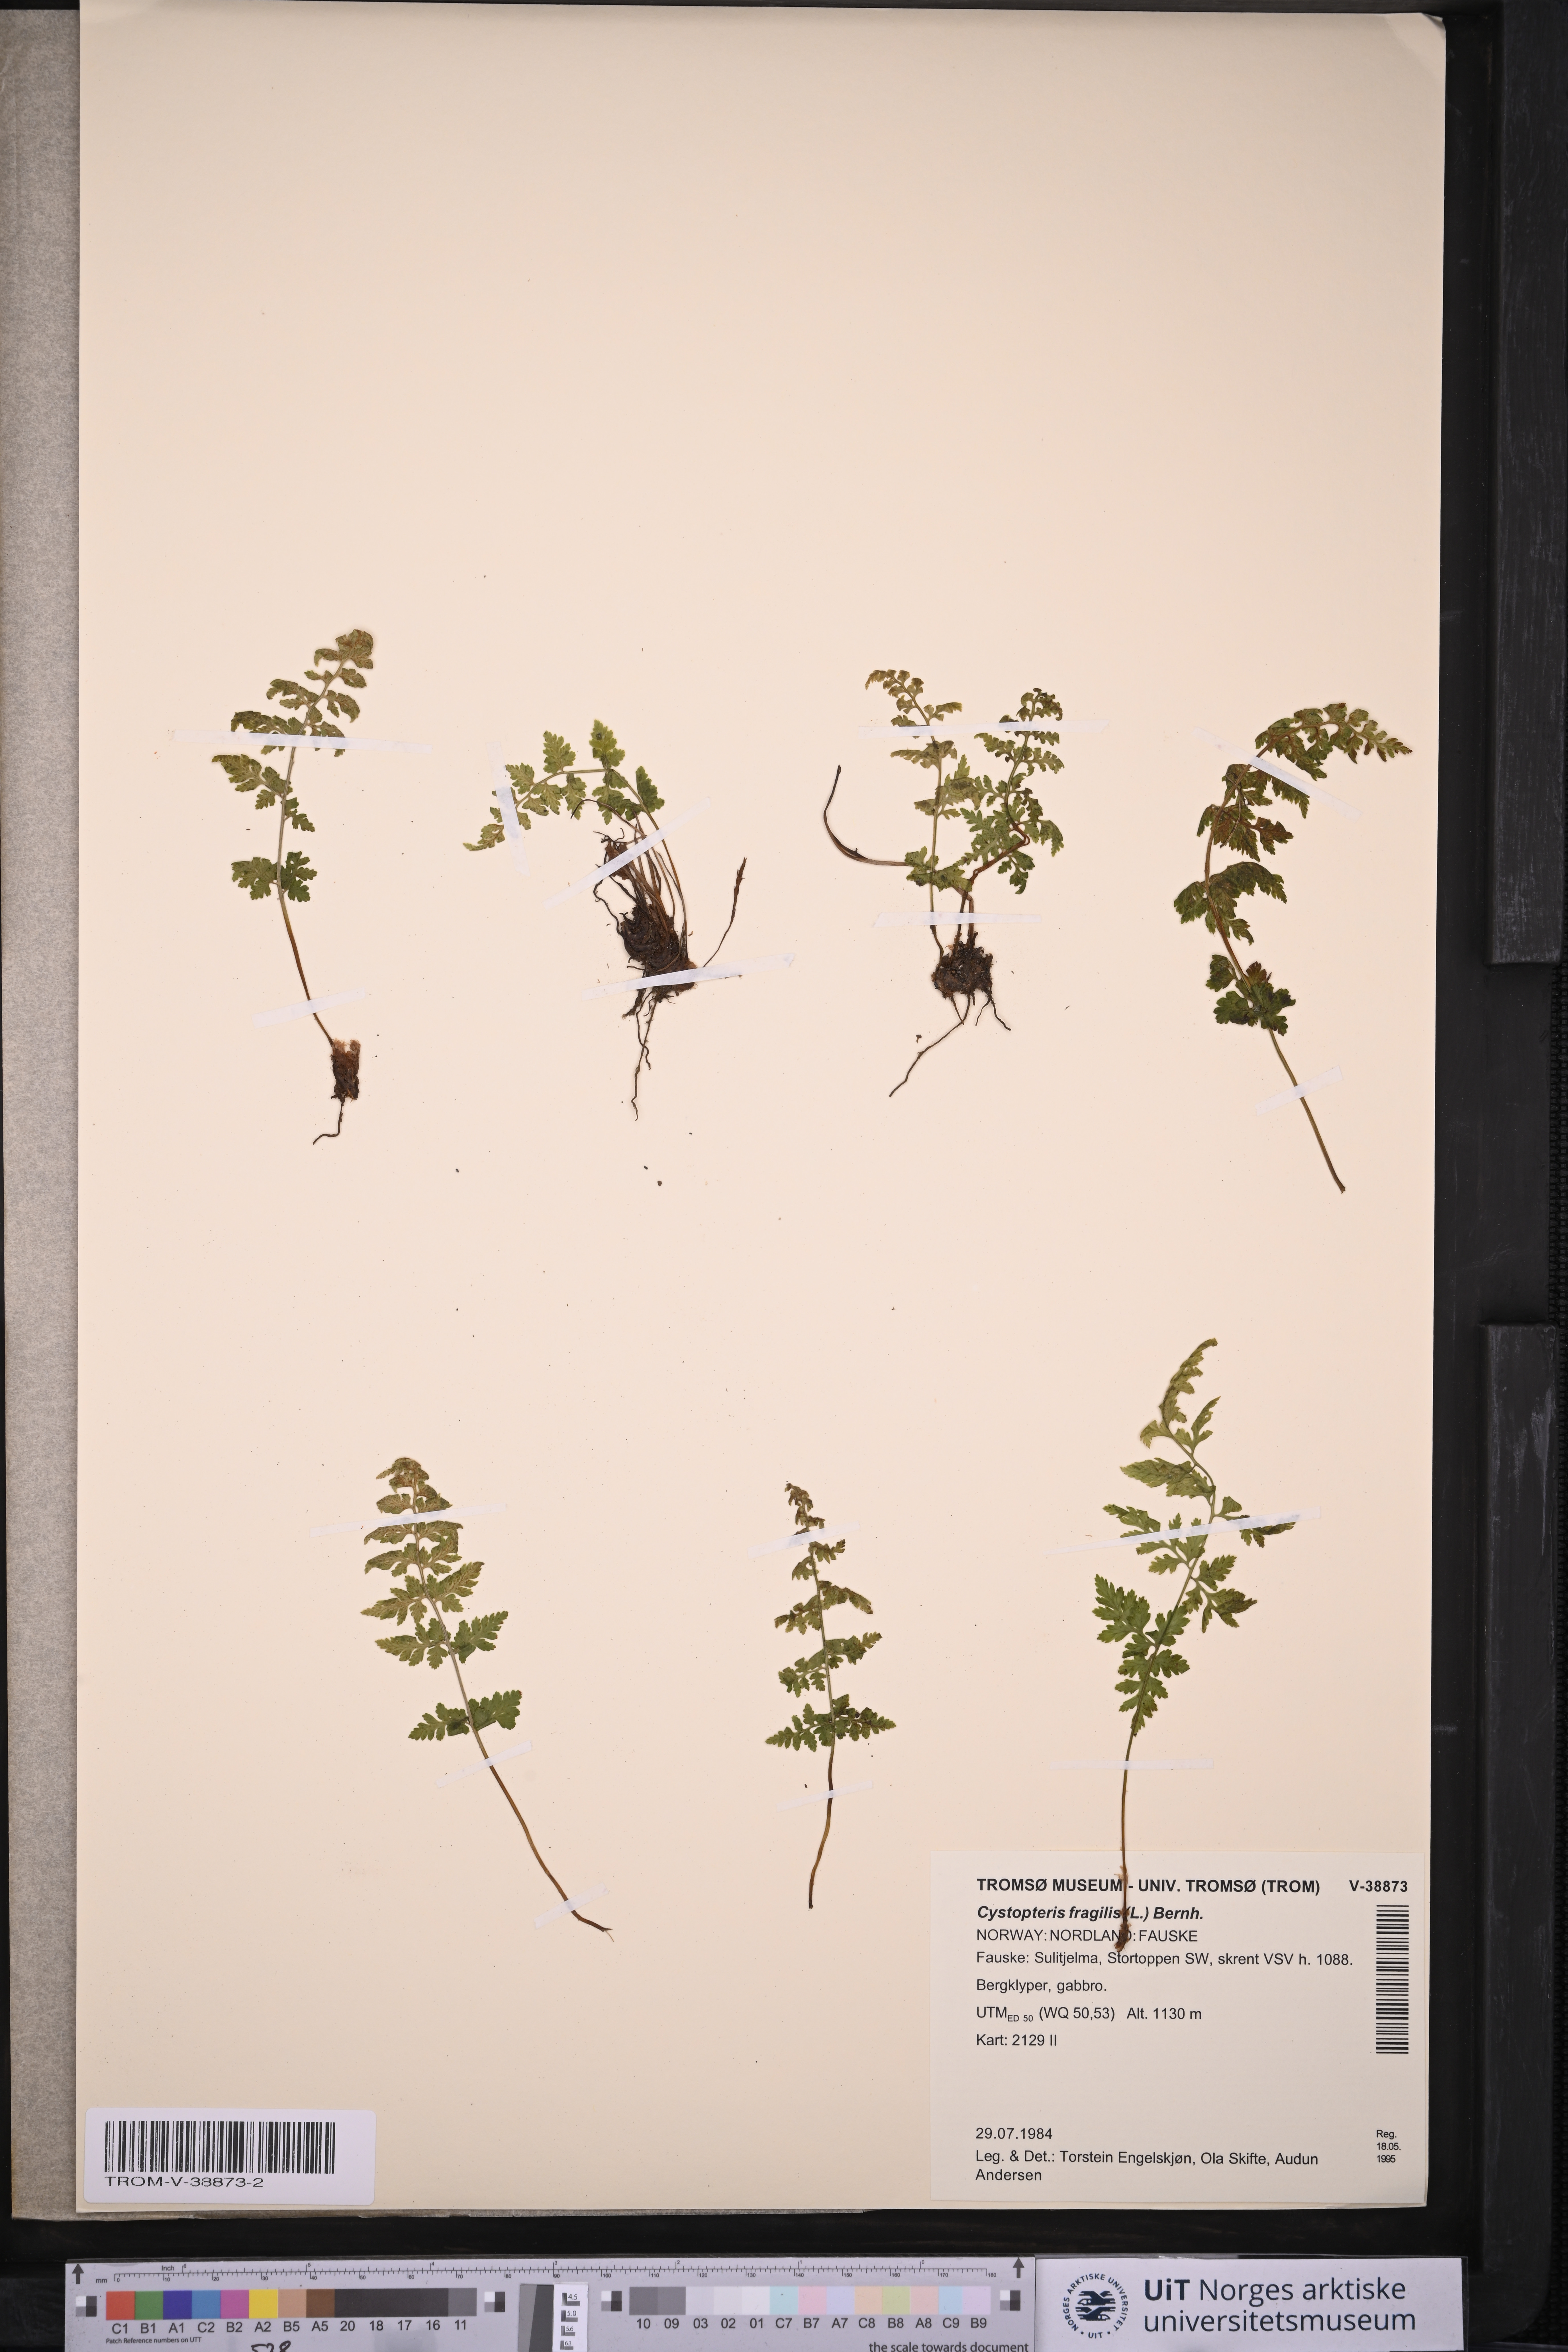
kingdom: Plantae
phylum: Tracheophyta
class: Polypodiopsida
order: Polypodiales
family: Cystopteridaceae
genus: Cystopteris
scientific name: Cystopteris fragilis
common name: Brittle bladder fern
